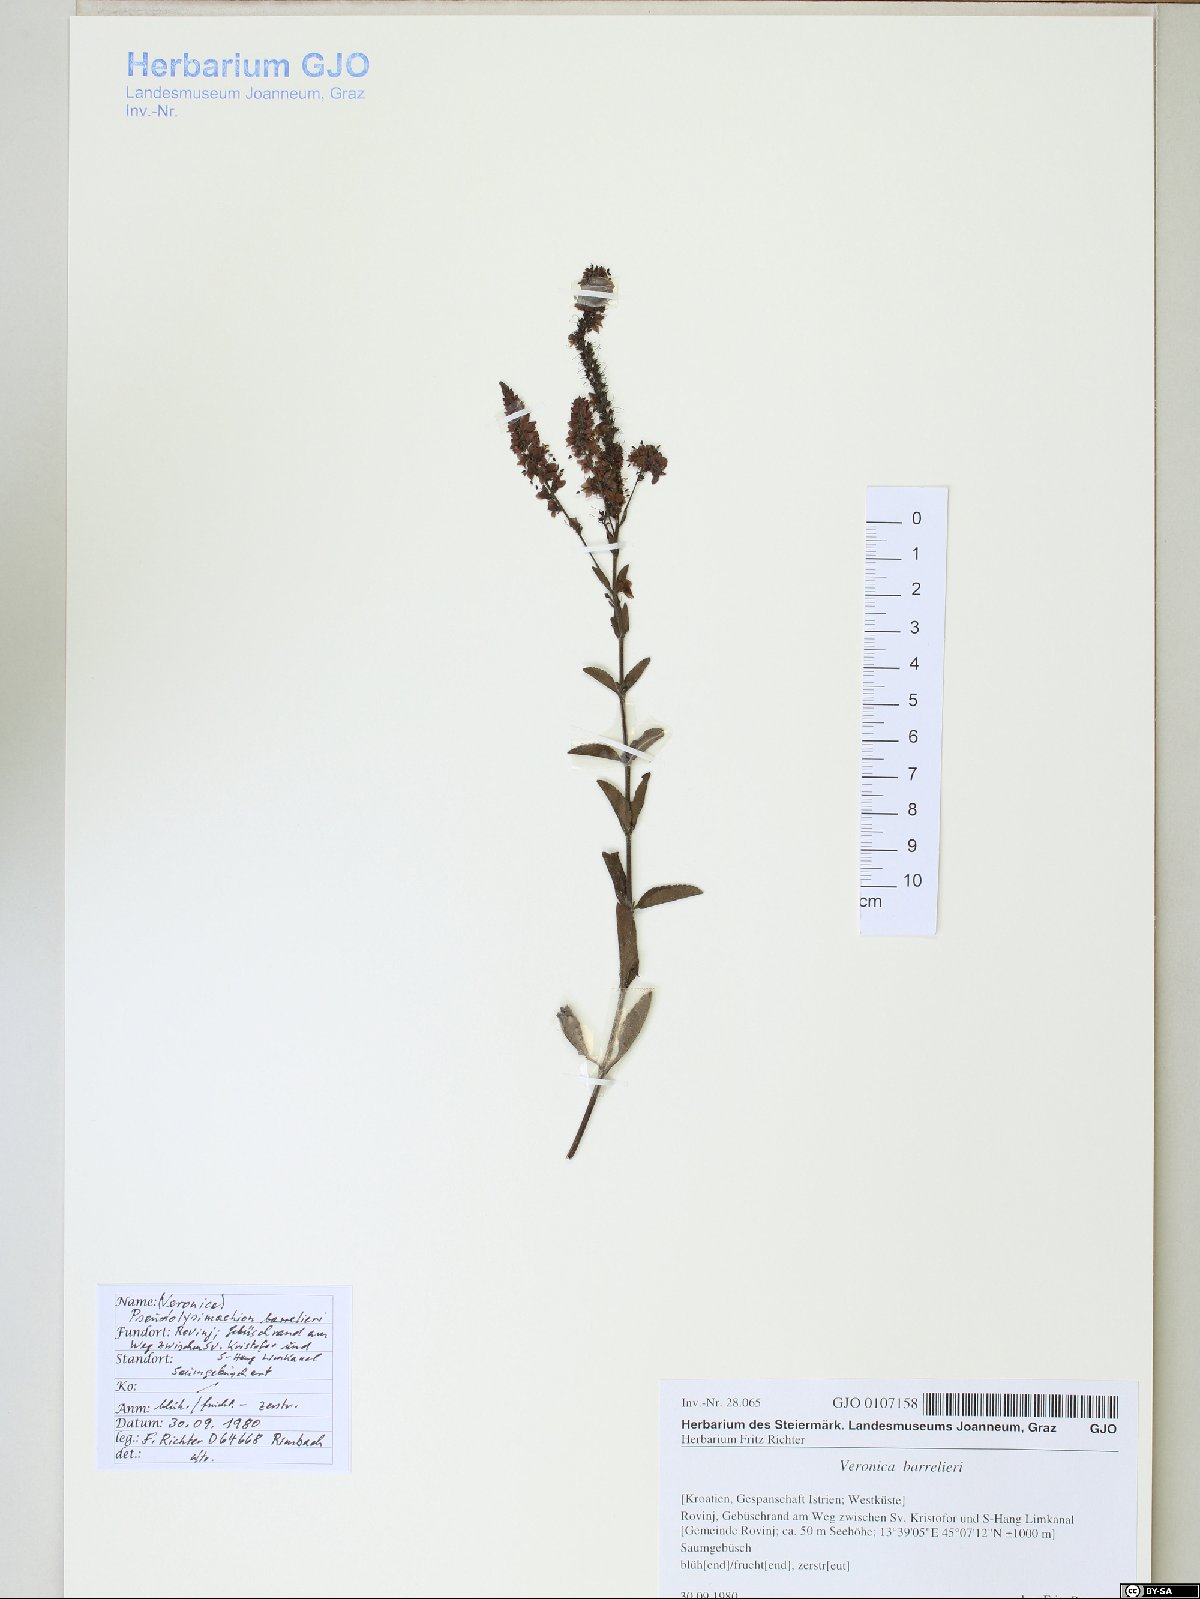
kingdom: Plantae
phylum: Tracheophyta
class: Magnoliopsida
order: Lamiales
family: Plantaginaceae
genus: Veronica
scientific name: Veronica barrelieri
